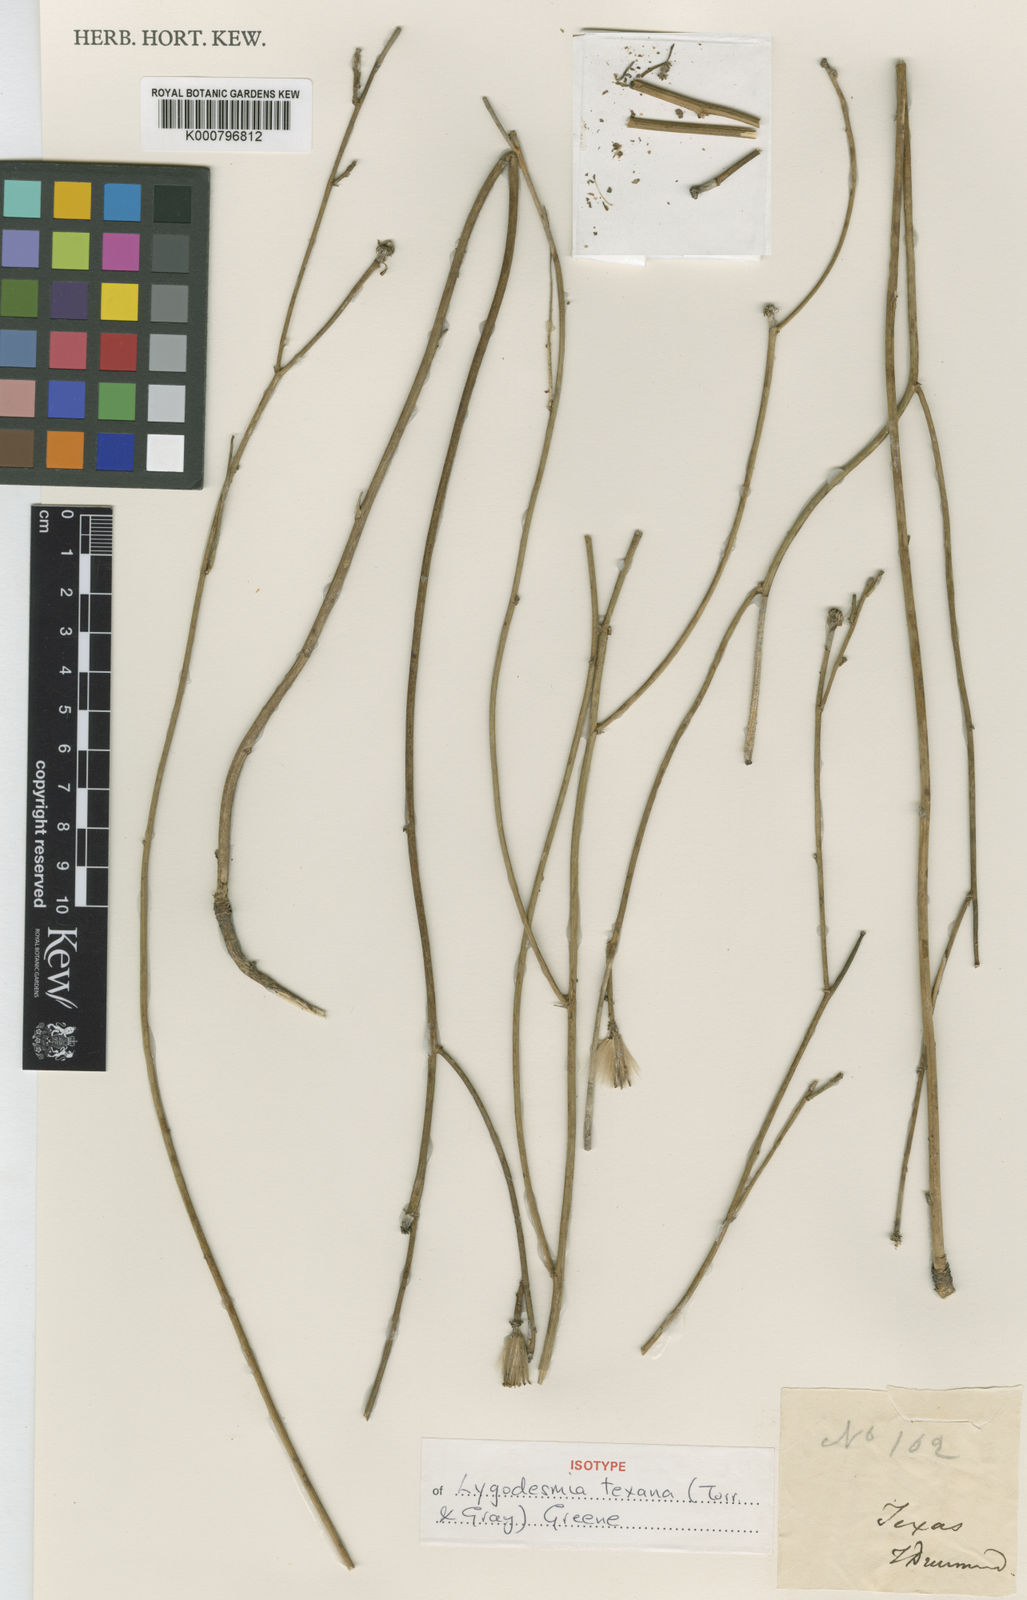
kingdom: Plantae
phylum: Tracheophyta
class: Magnoliopsida
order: Asterales
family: Asteraceae
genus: Lygodesmia
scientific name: Lygodesmia texana
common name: Texas skeleton-plant
